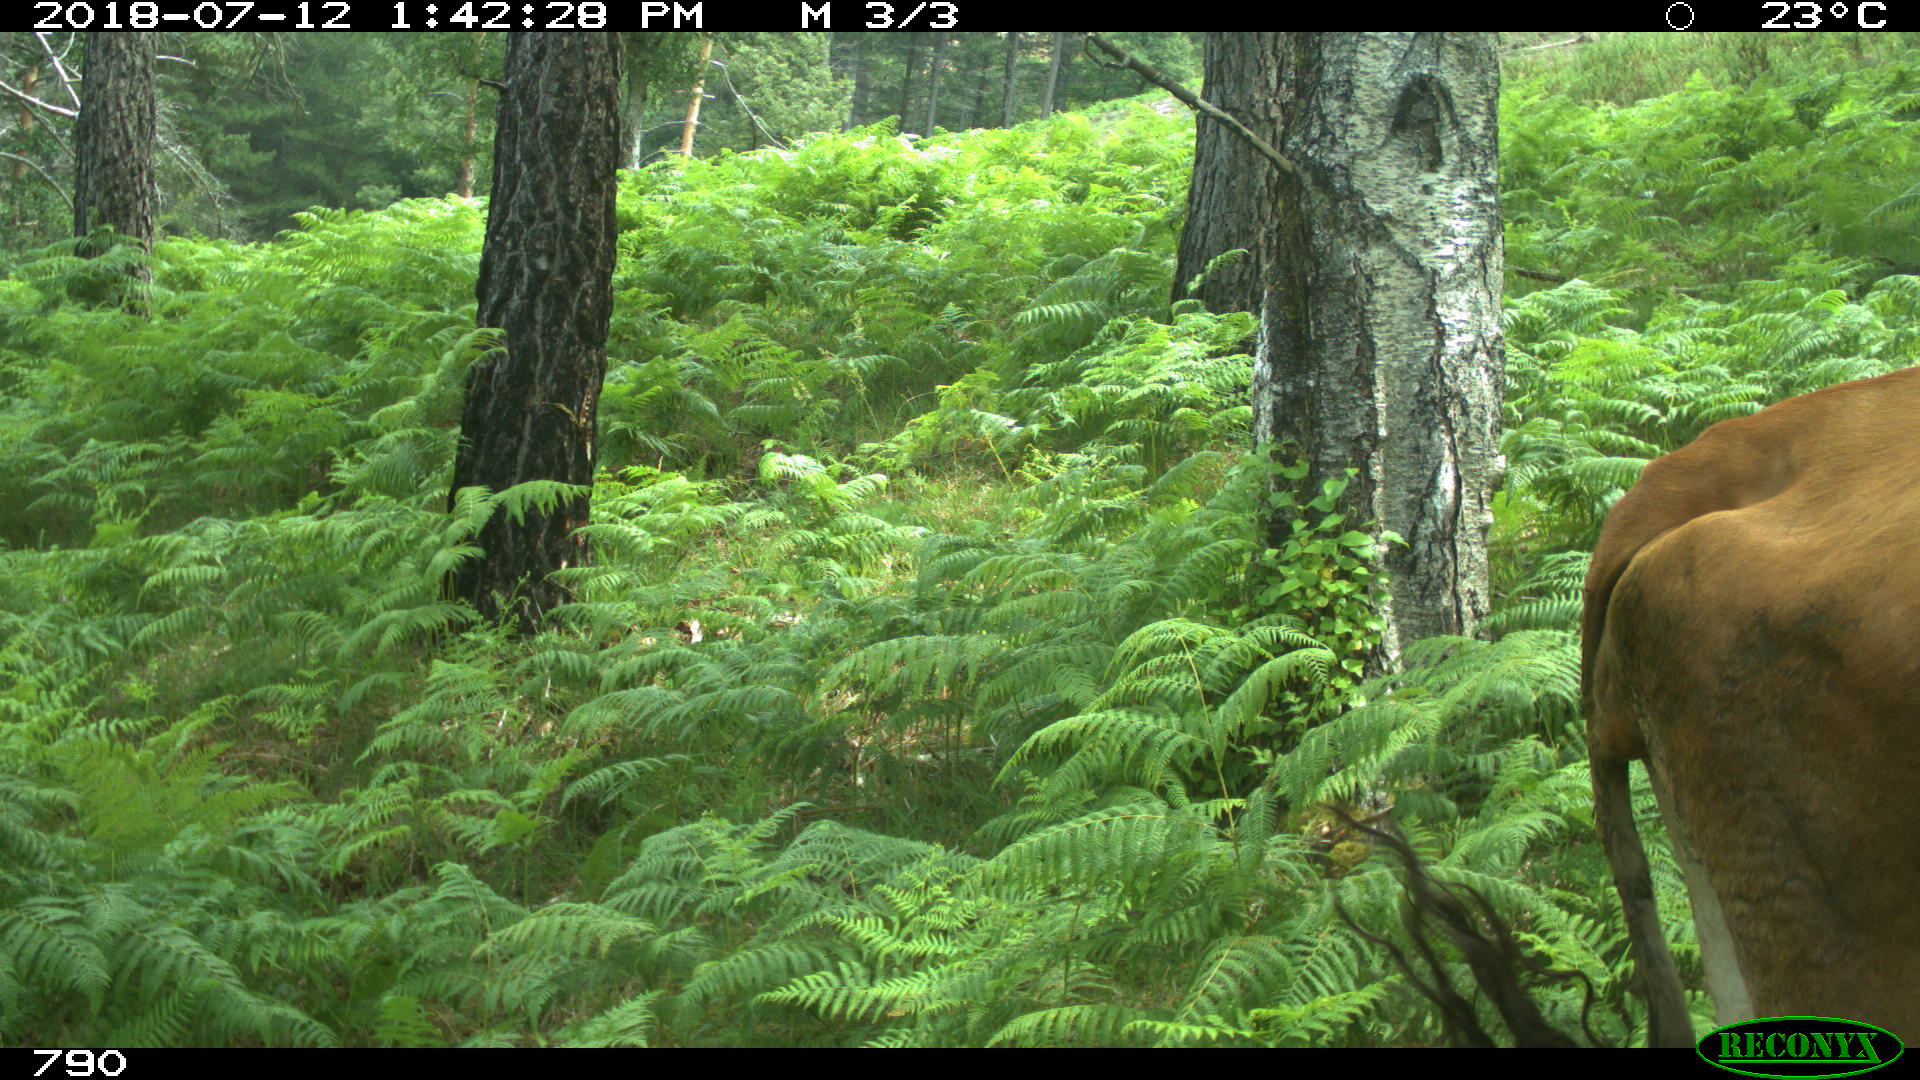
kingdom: Animalia
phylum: Chordata
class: Mammalia
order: Artiodactyla
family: Bovidae
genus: Bos
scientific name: Bos taurus
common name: Domesticated cattle
